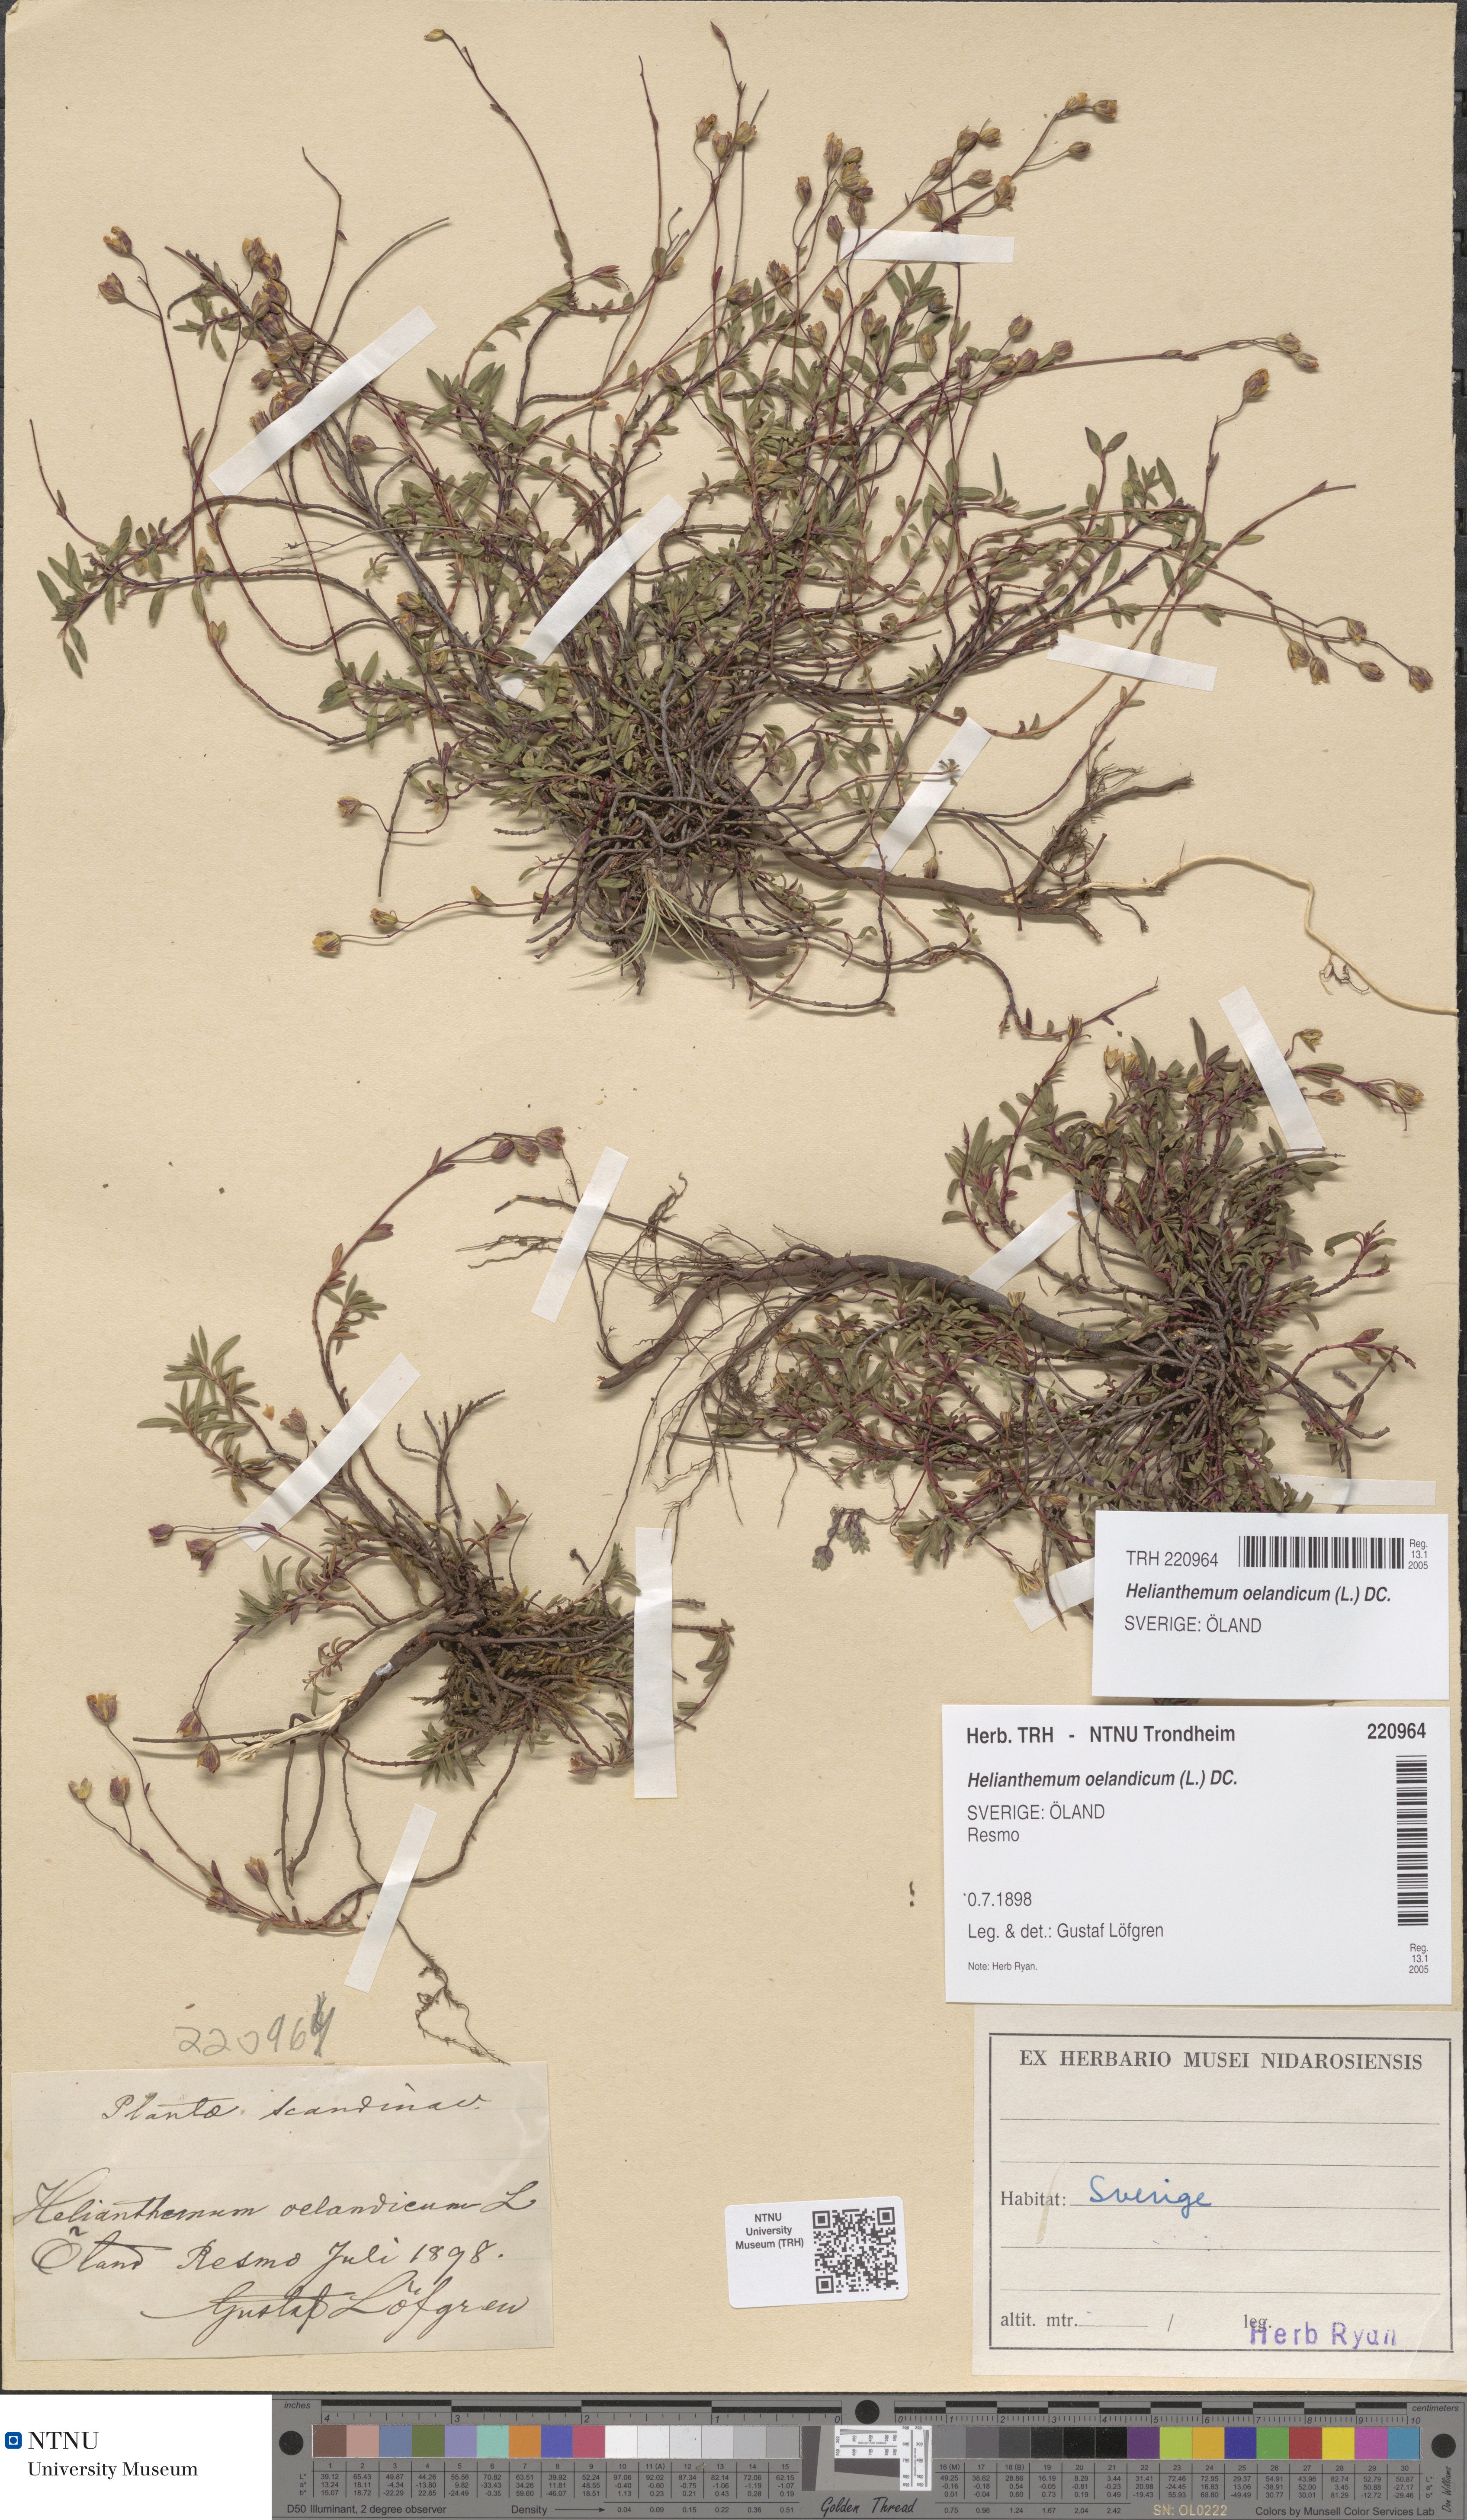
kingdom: Plantae
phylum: Tracheophyta
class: Magnoliopsida
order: Malvales
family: Cistaceae
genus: Helianthemum
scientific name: Helianthemum oelandicum
